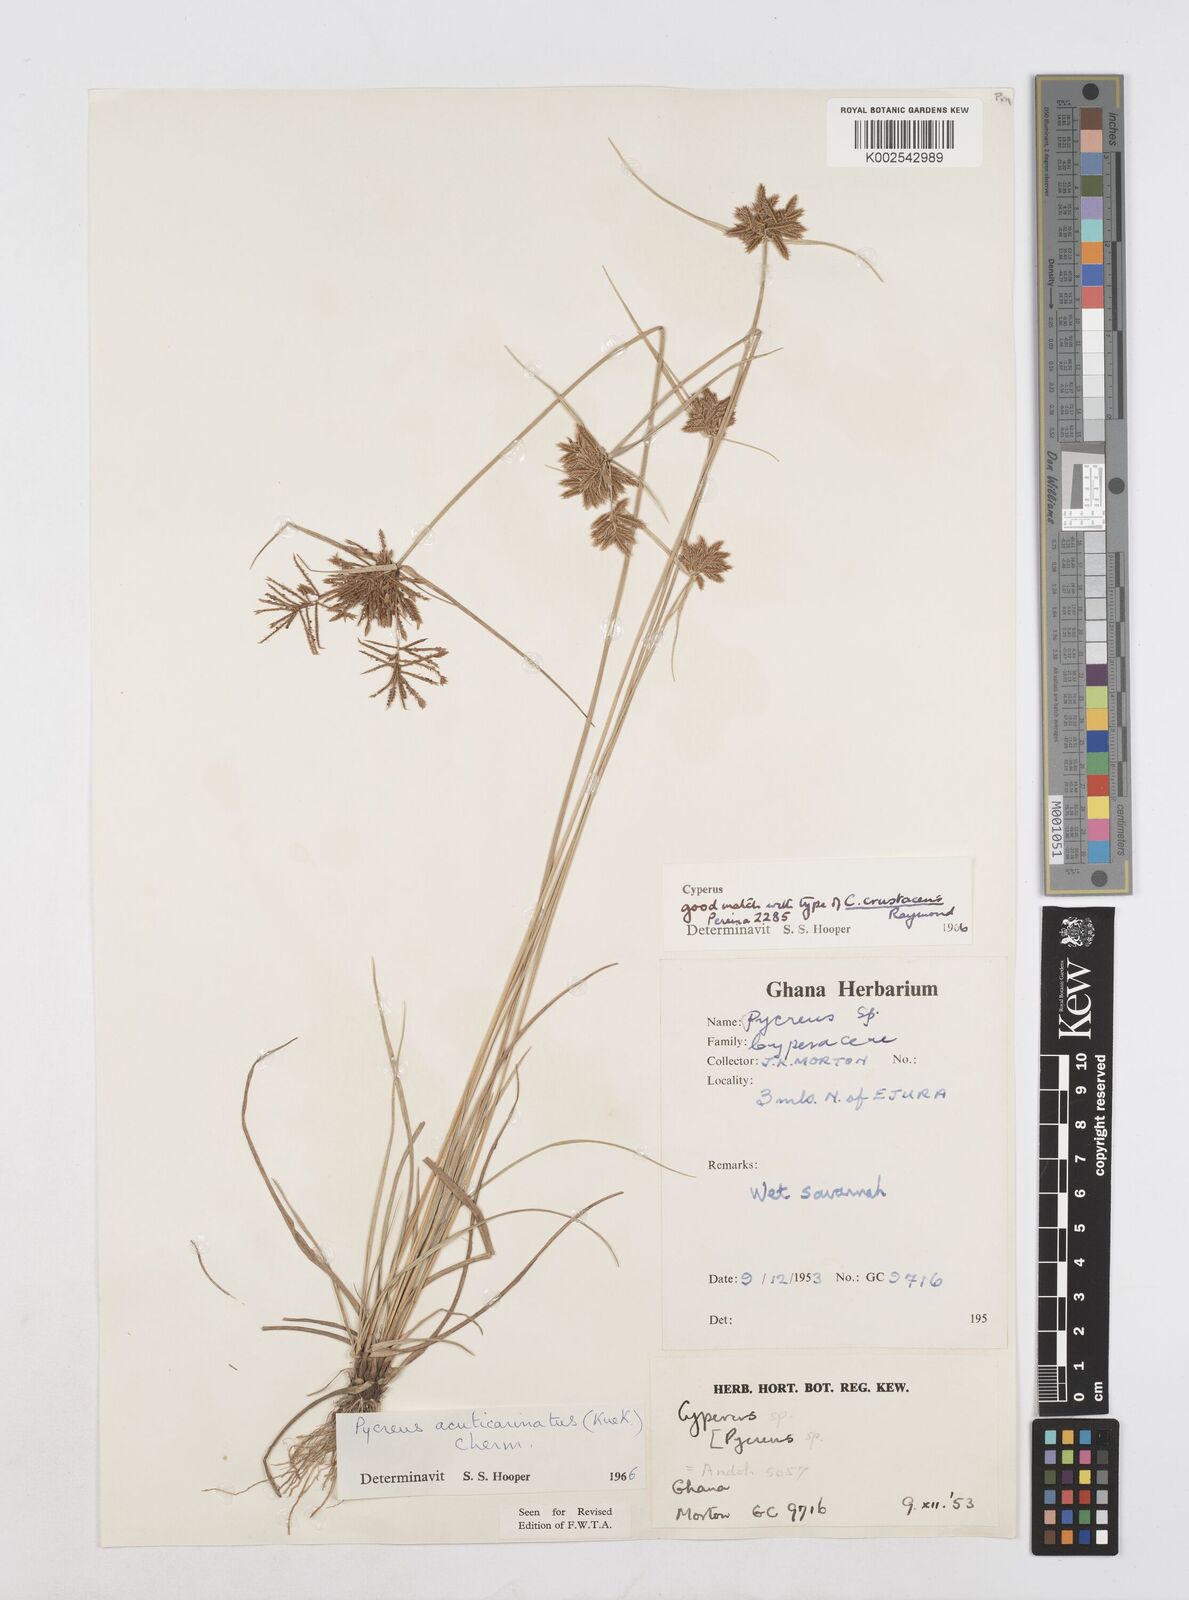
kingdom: Plantae
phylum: Tracheophyta
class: Liliopsida
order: Poales
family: Cyperaceae
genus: Cyperus
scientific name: Cyperus acuticarinatus
